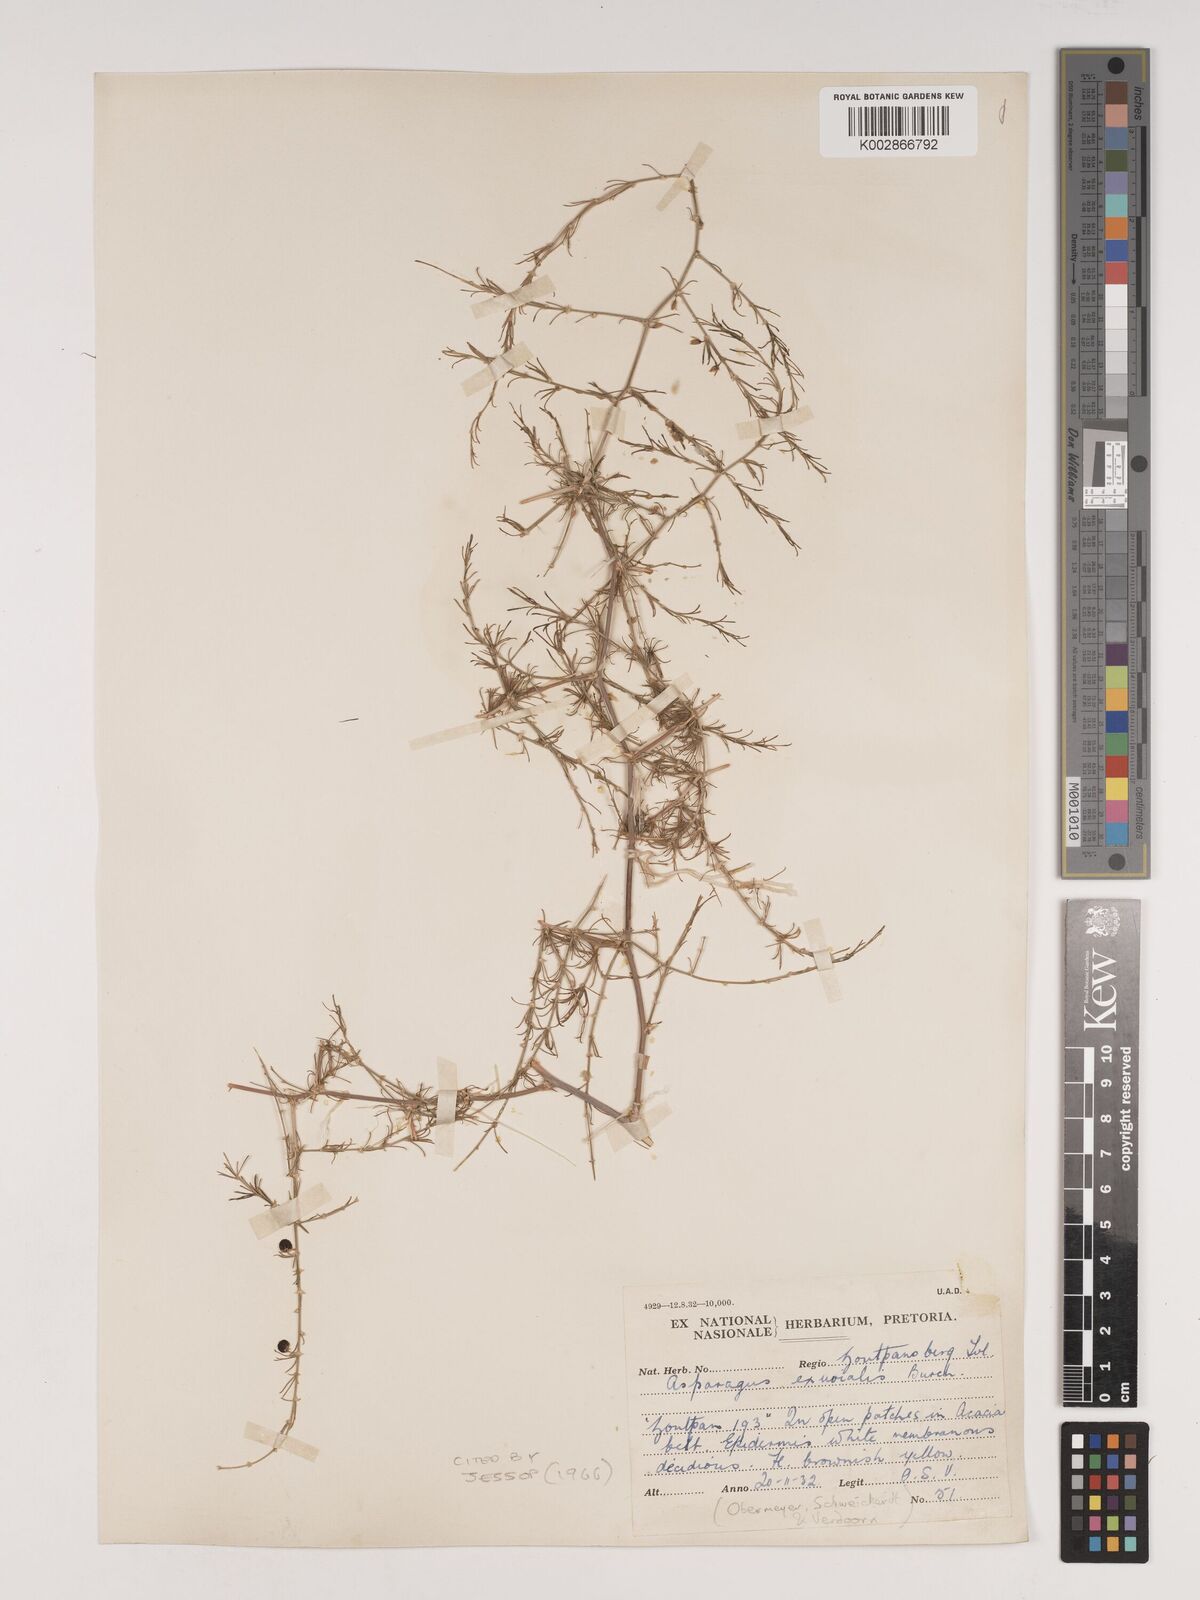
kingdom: Plantae
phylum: Tracheophyta
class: Liliopsida
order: Asparagales
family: Asparagaceae
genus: Asparagus
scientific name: Asparagus exuvialis
